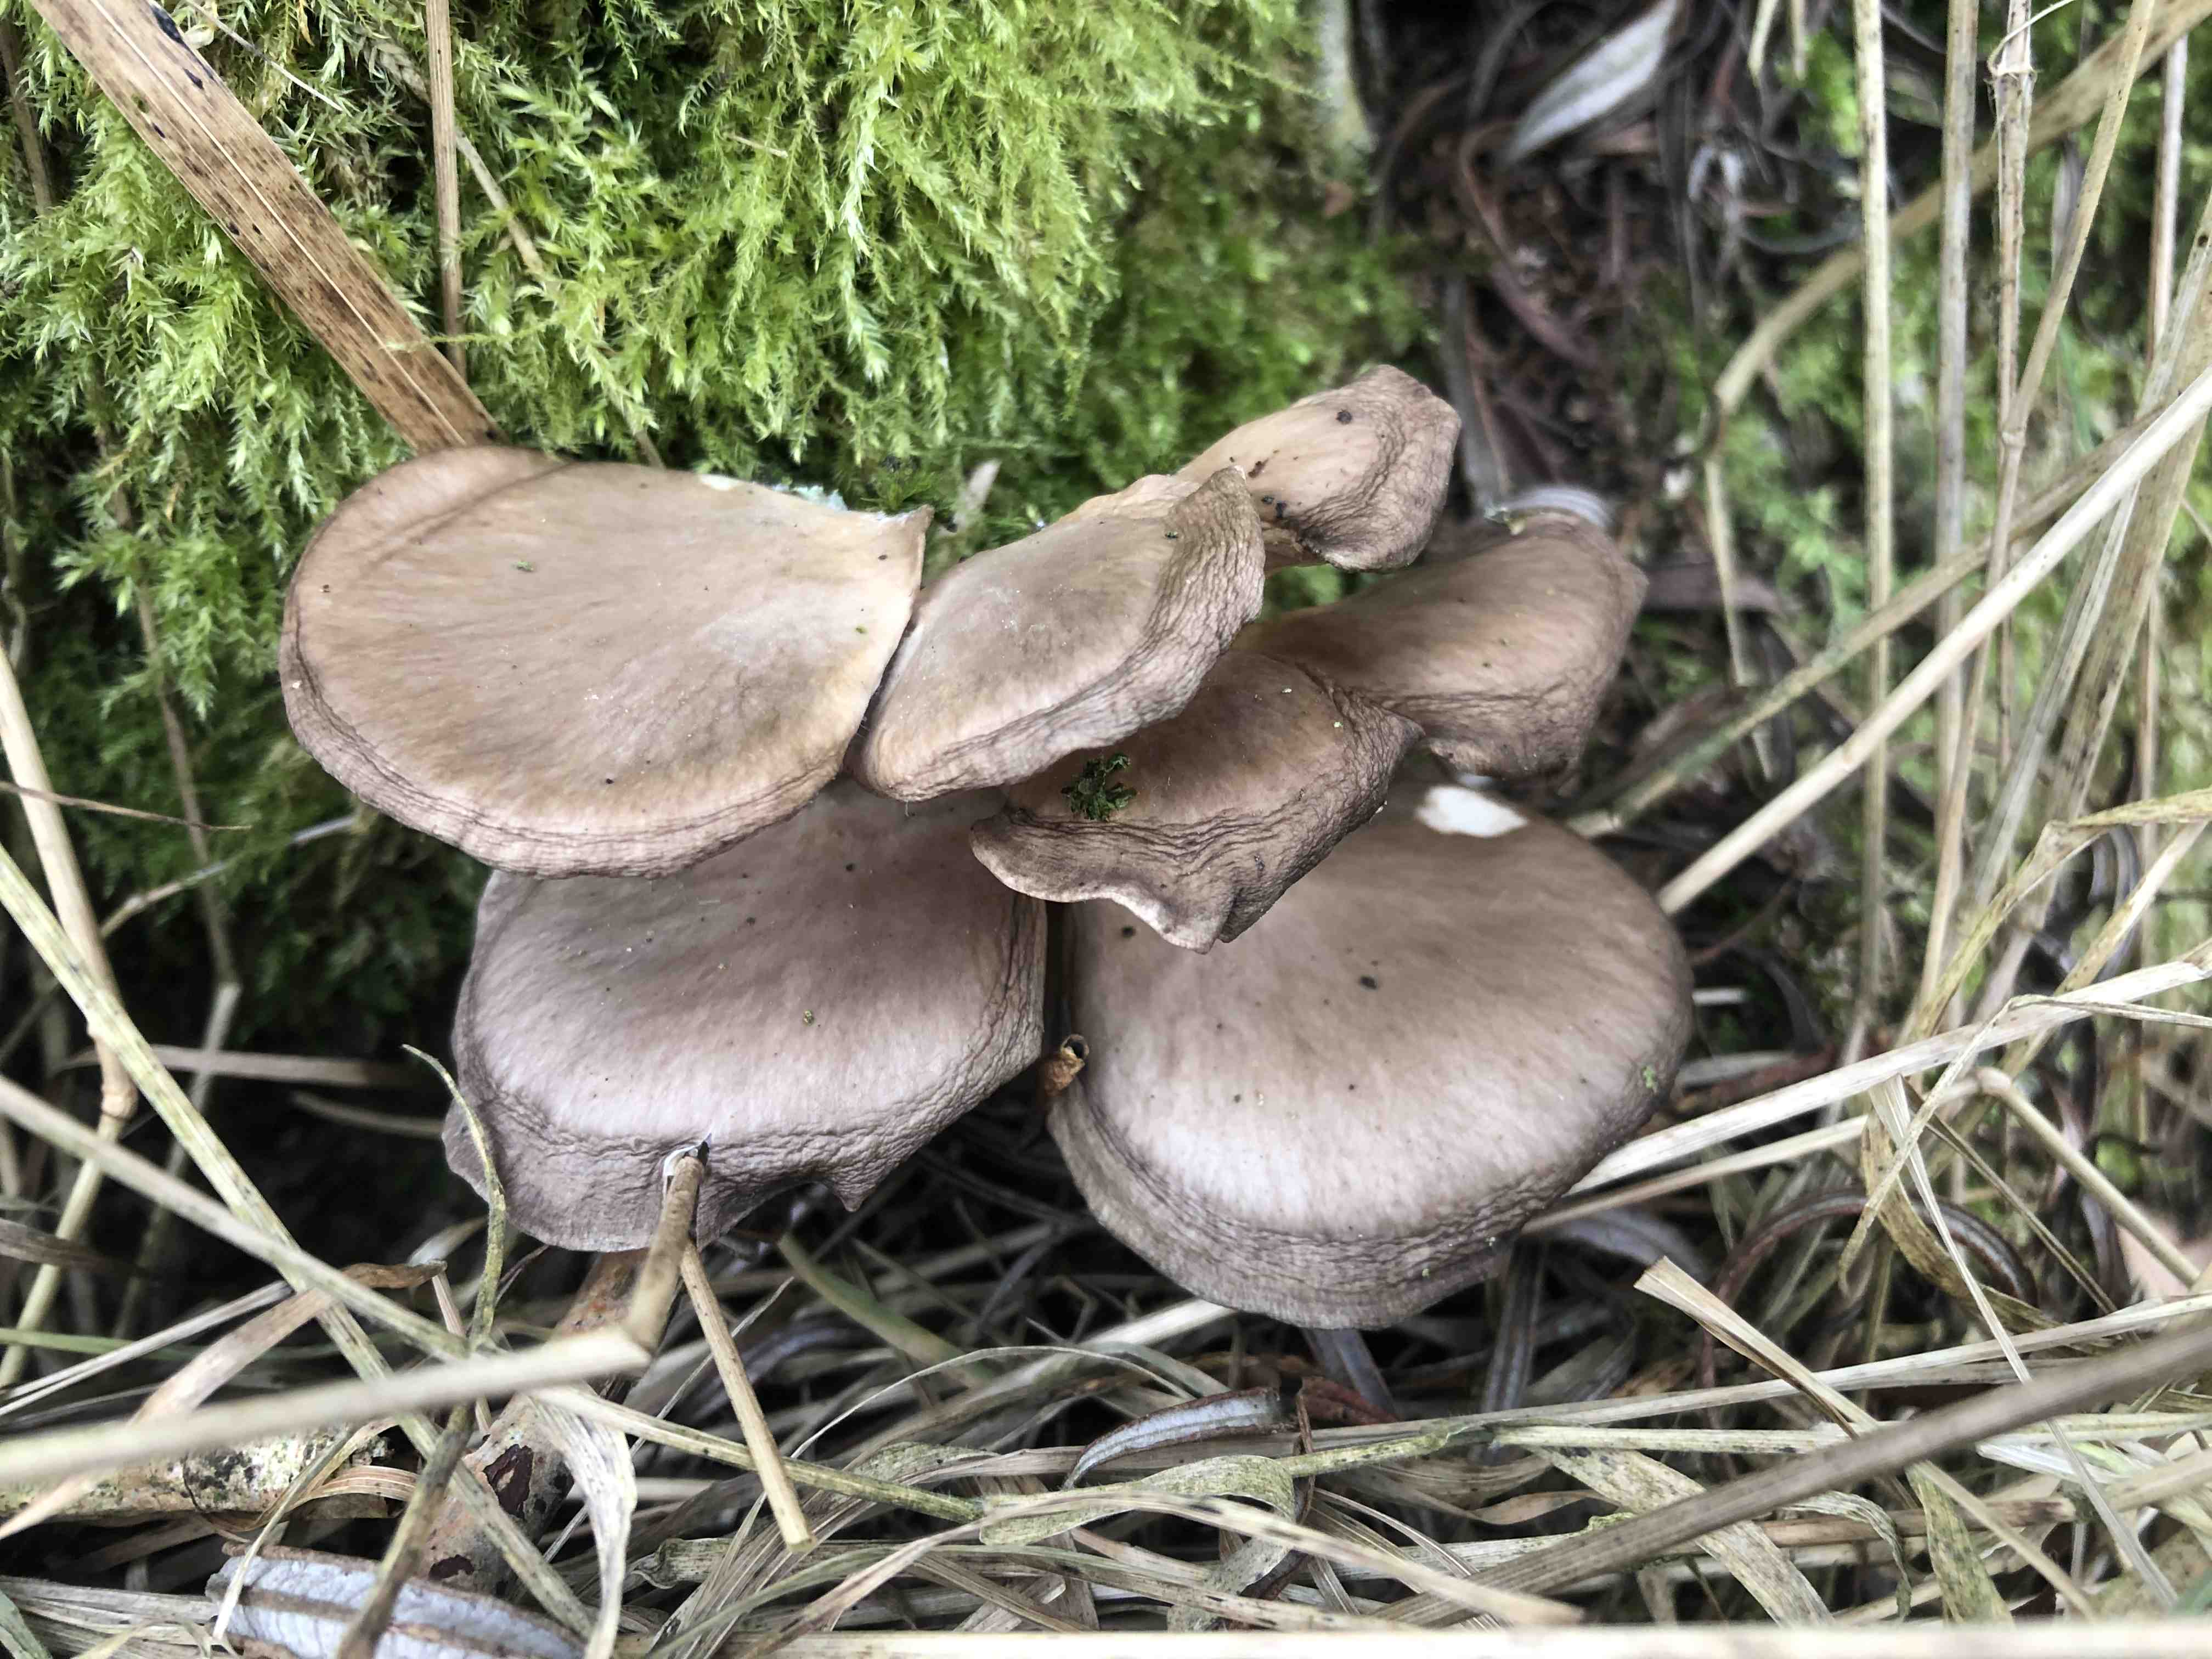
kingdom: Fungi
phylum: Basidiomycota
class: Agaricomycetes
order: Agaricales
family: Pleurotaceae
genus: Pleurotus
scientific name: Pleurotus ostreatus
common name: Oyster mushroom
